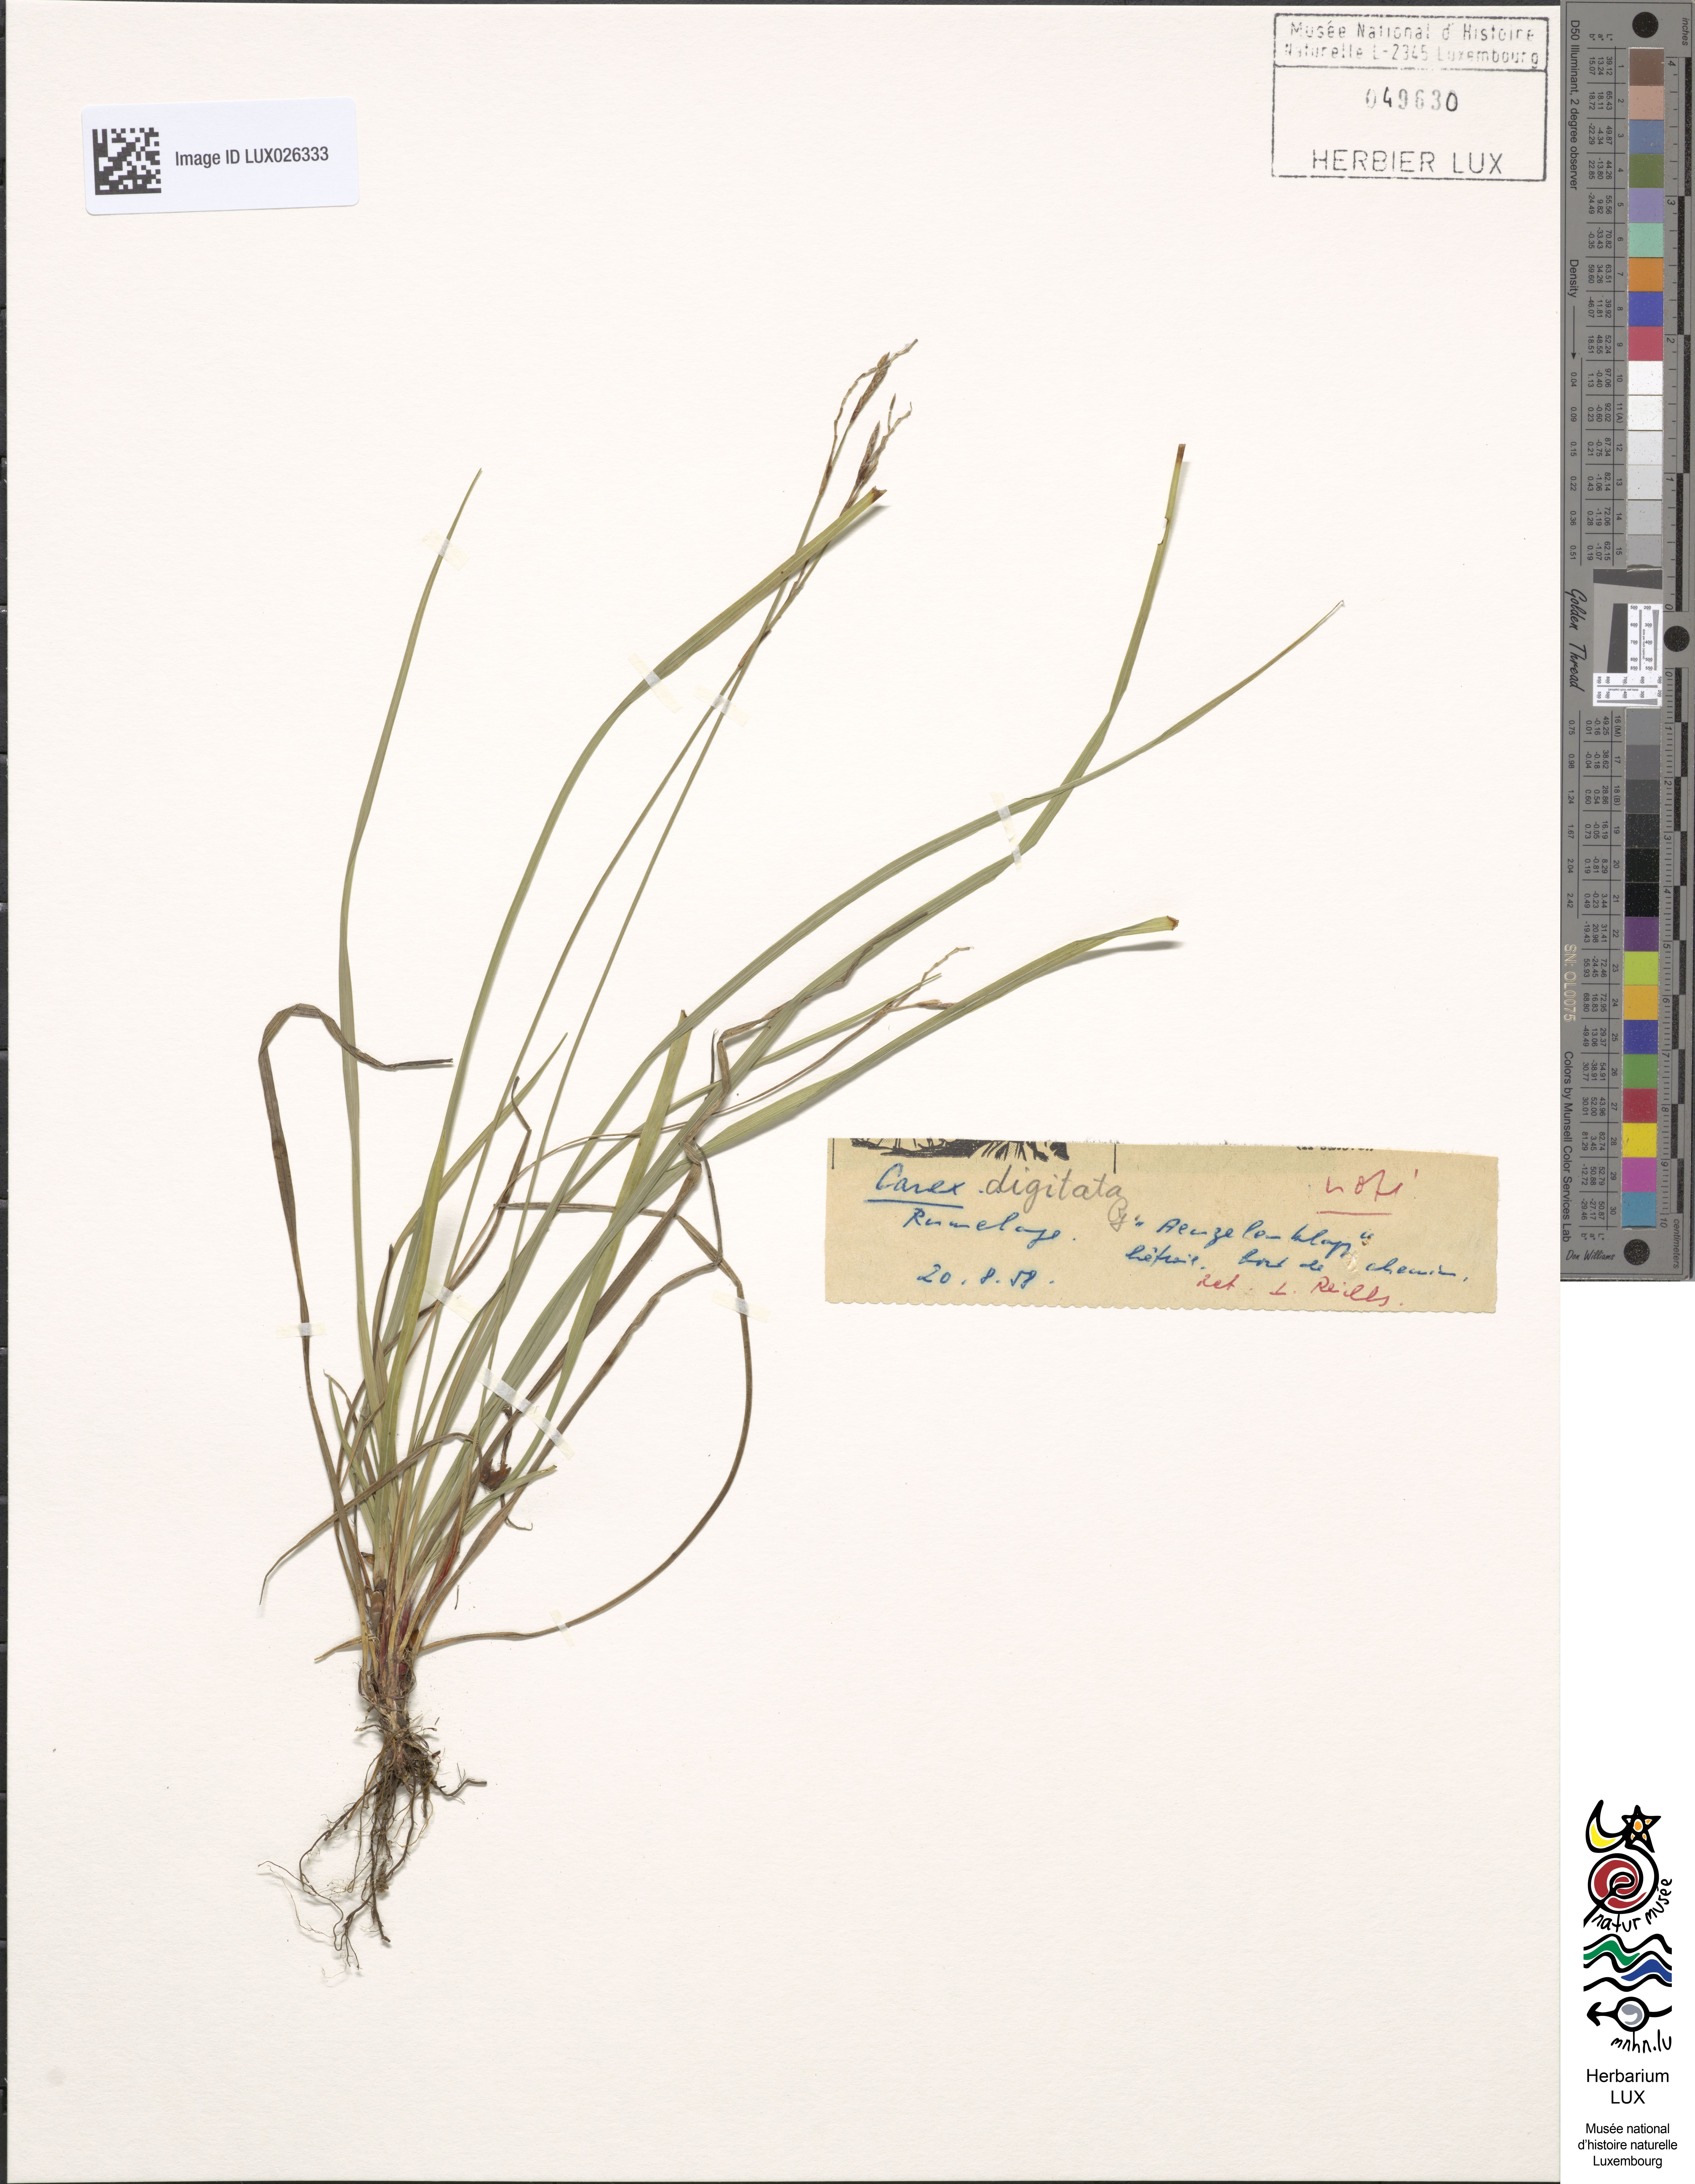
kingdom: Plantae
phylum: Tracheophyta
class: Liliopsida
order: Poales
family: Cyperaceae
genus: Carex
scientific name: Carex digitata
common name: Fingered sedge
